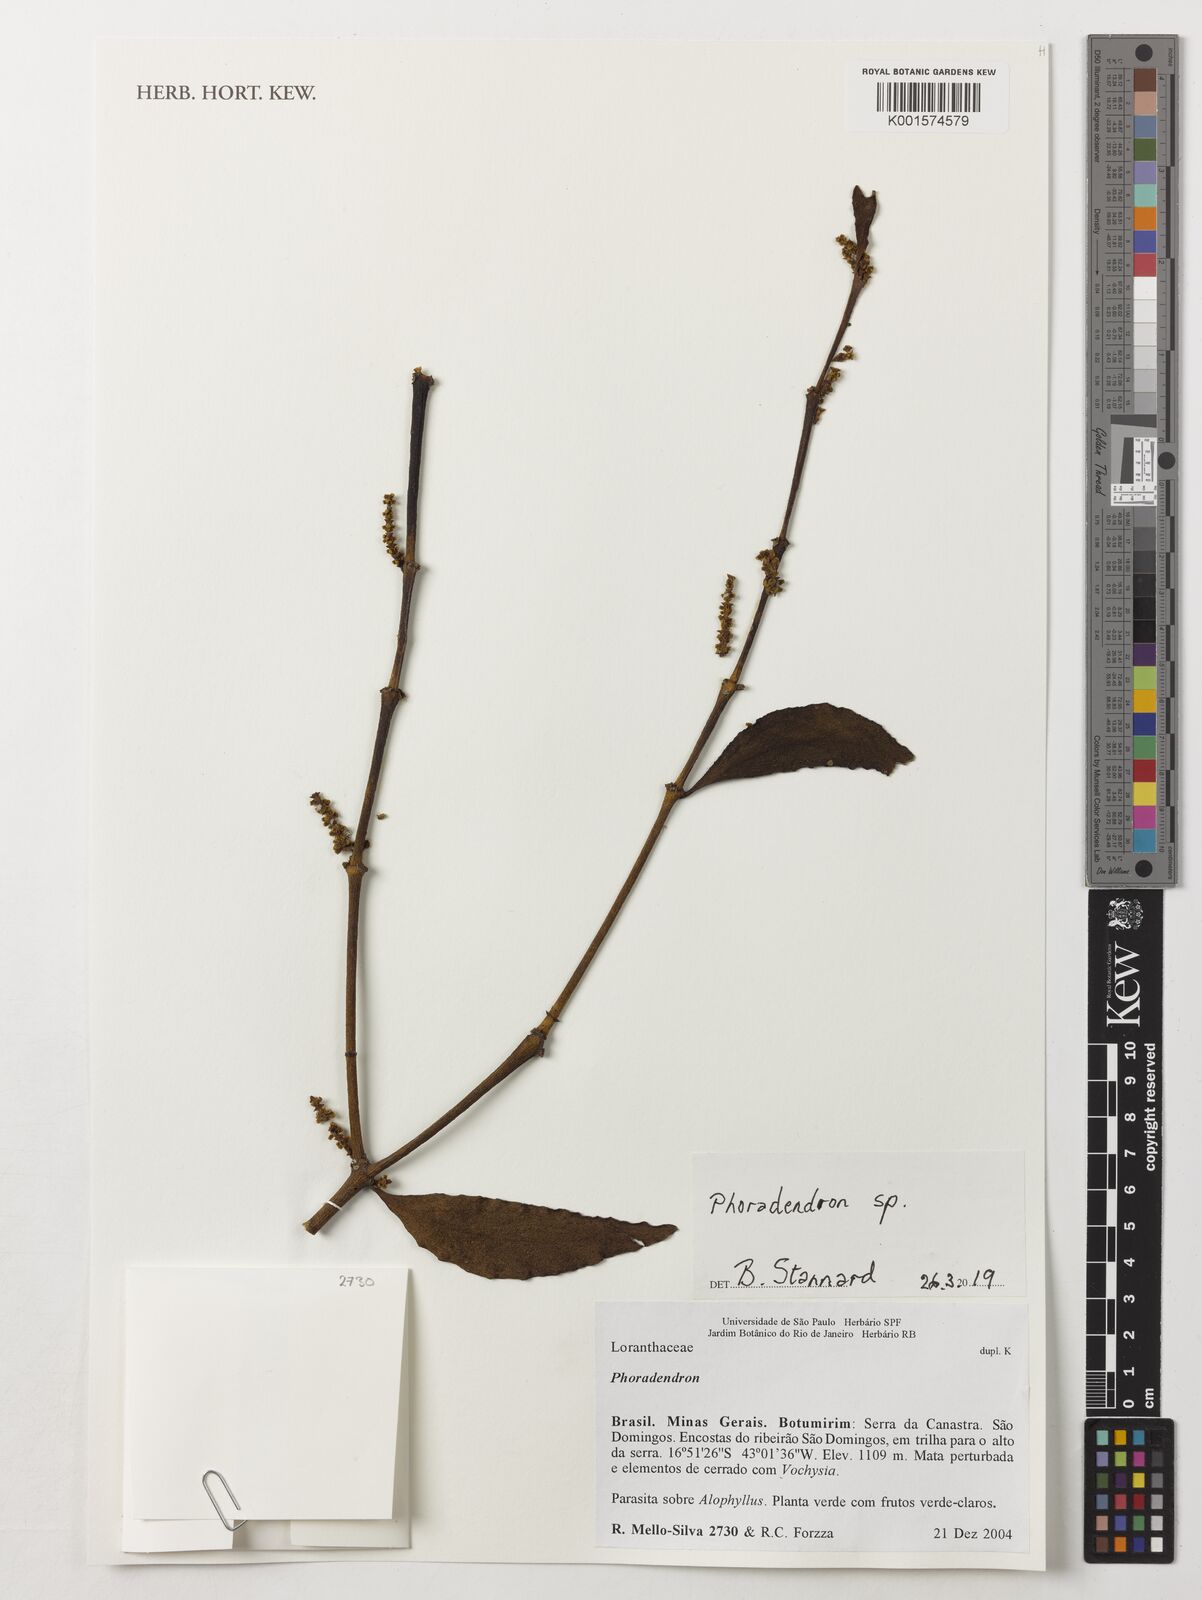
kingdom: Plantae
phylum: Tracheophyta
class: Magnoliopsida
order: Santalales
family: Viscaceae
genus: Phoradendron
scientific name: Phoradendron
